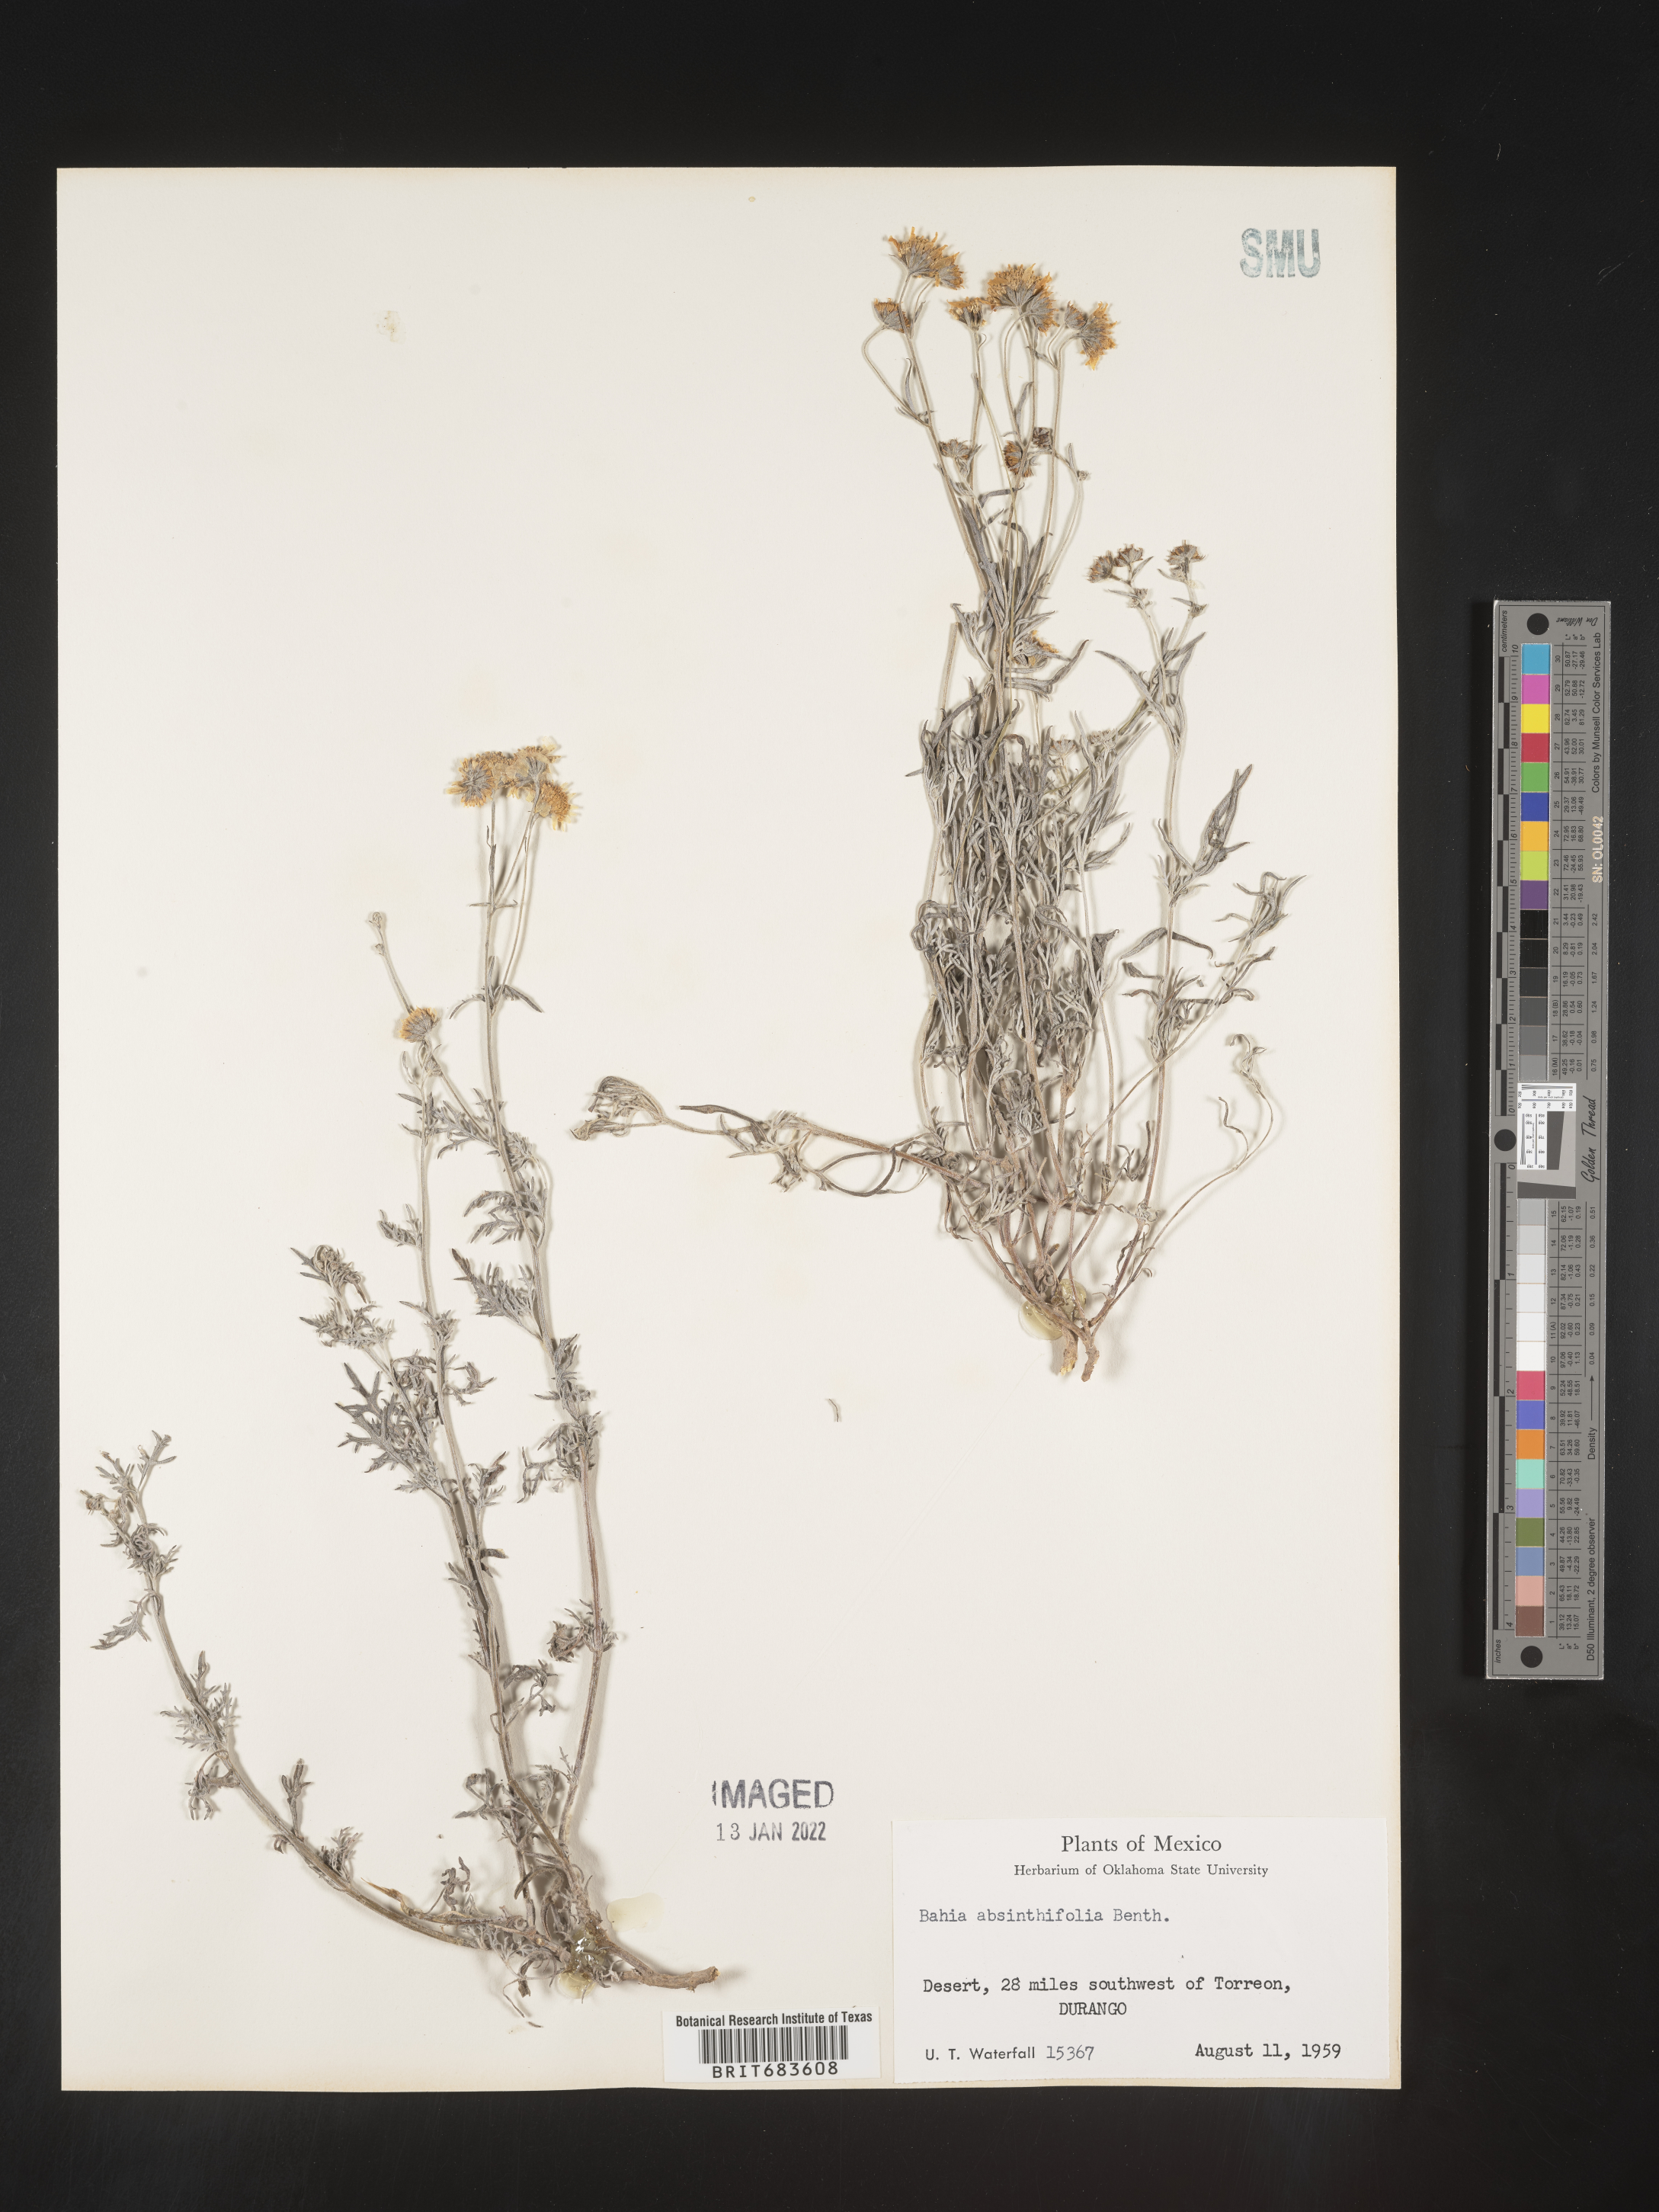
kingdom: Plantae
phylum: Tracheophyta
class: Magnoliopsida
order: Asterales
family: Asteraceae
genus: Picradeniopsis
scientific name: Picradeniopsis absinthifolia
